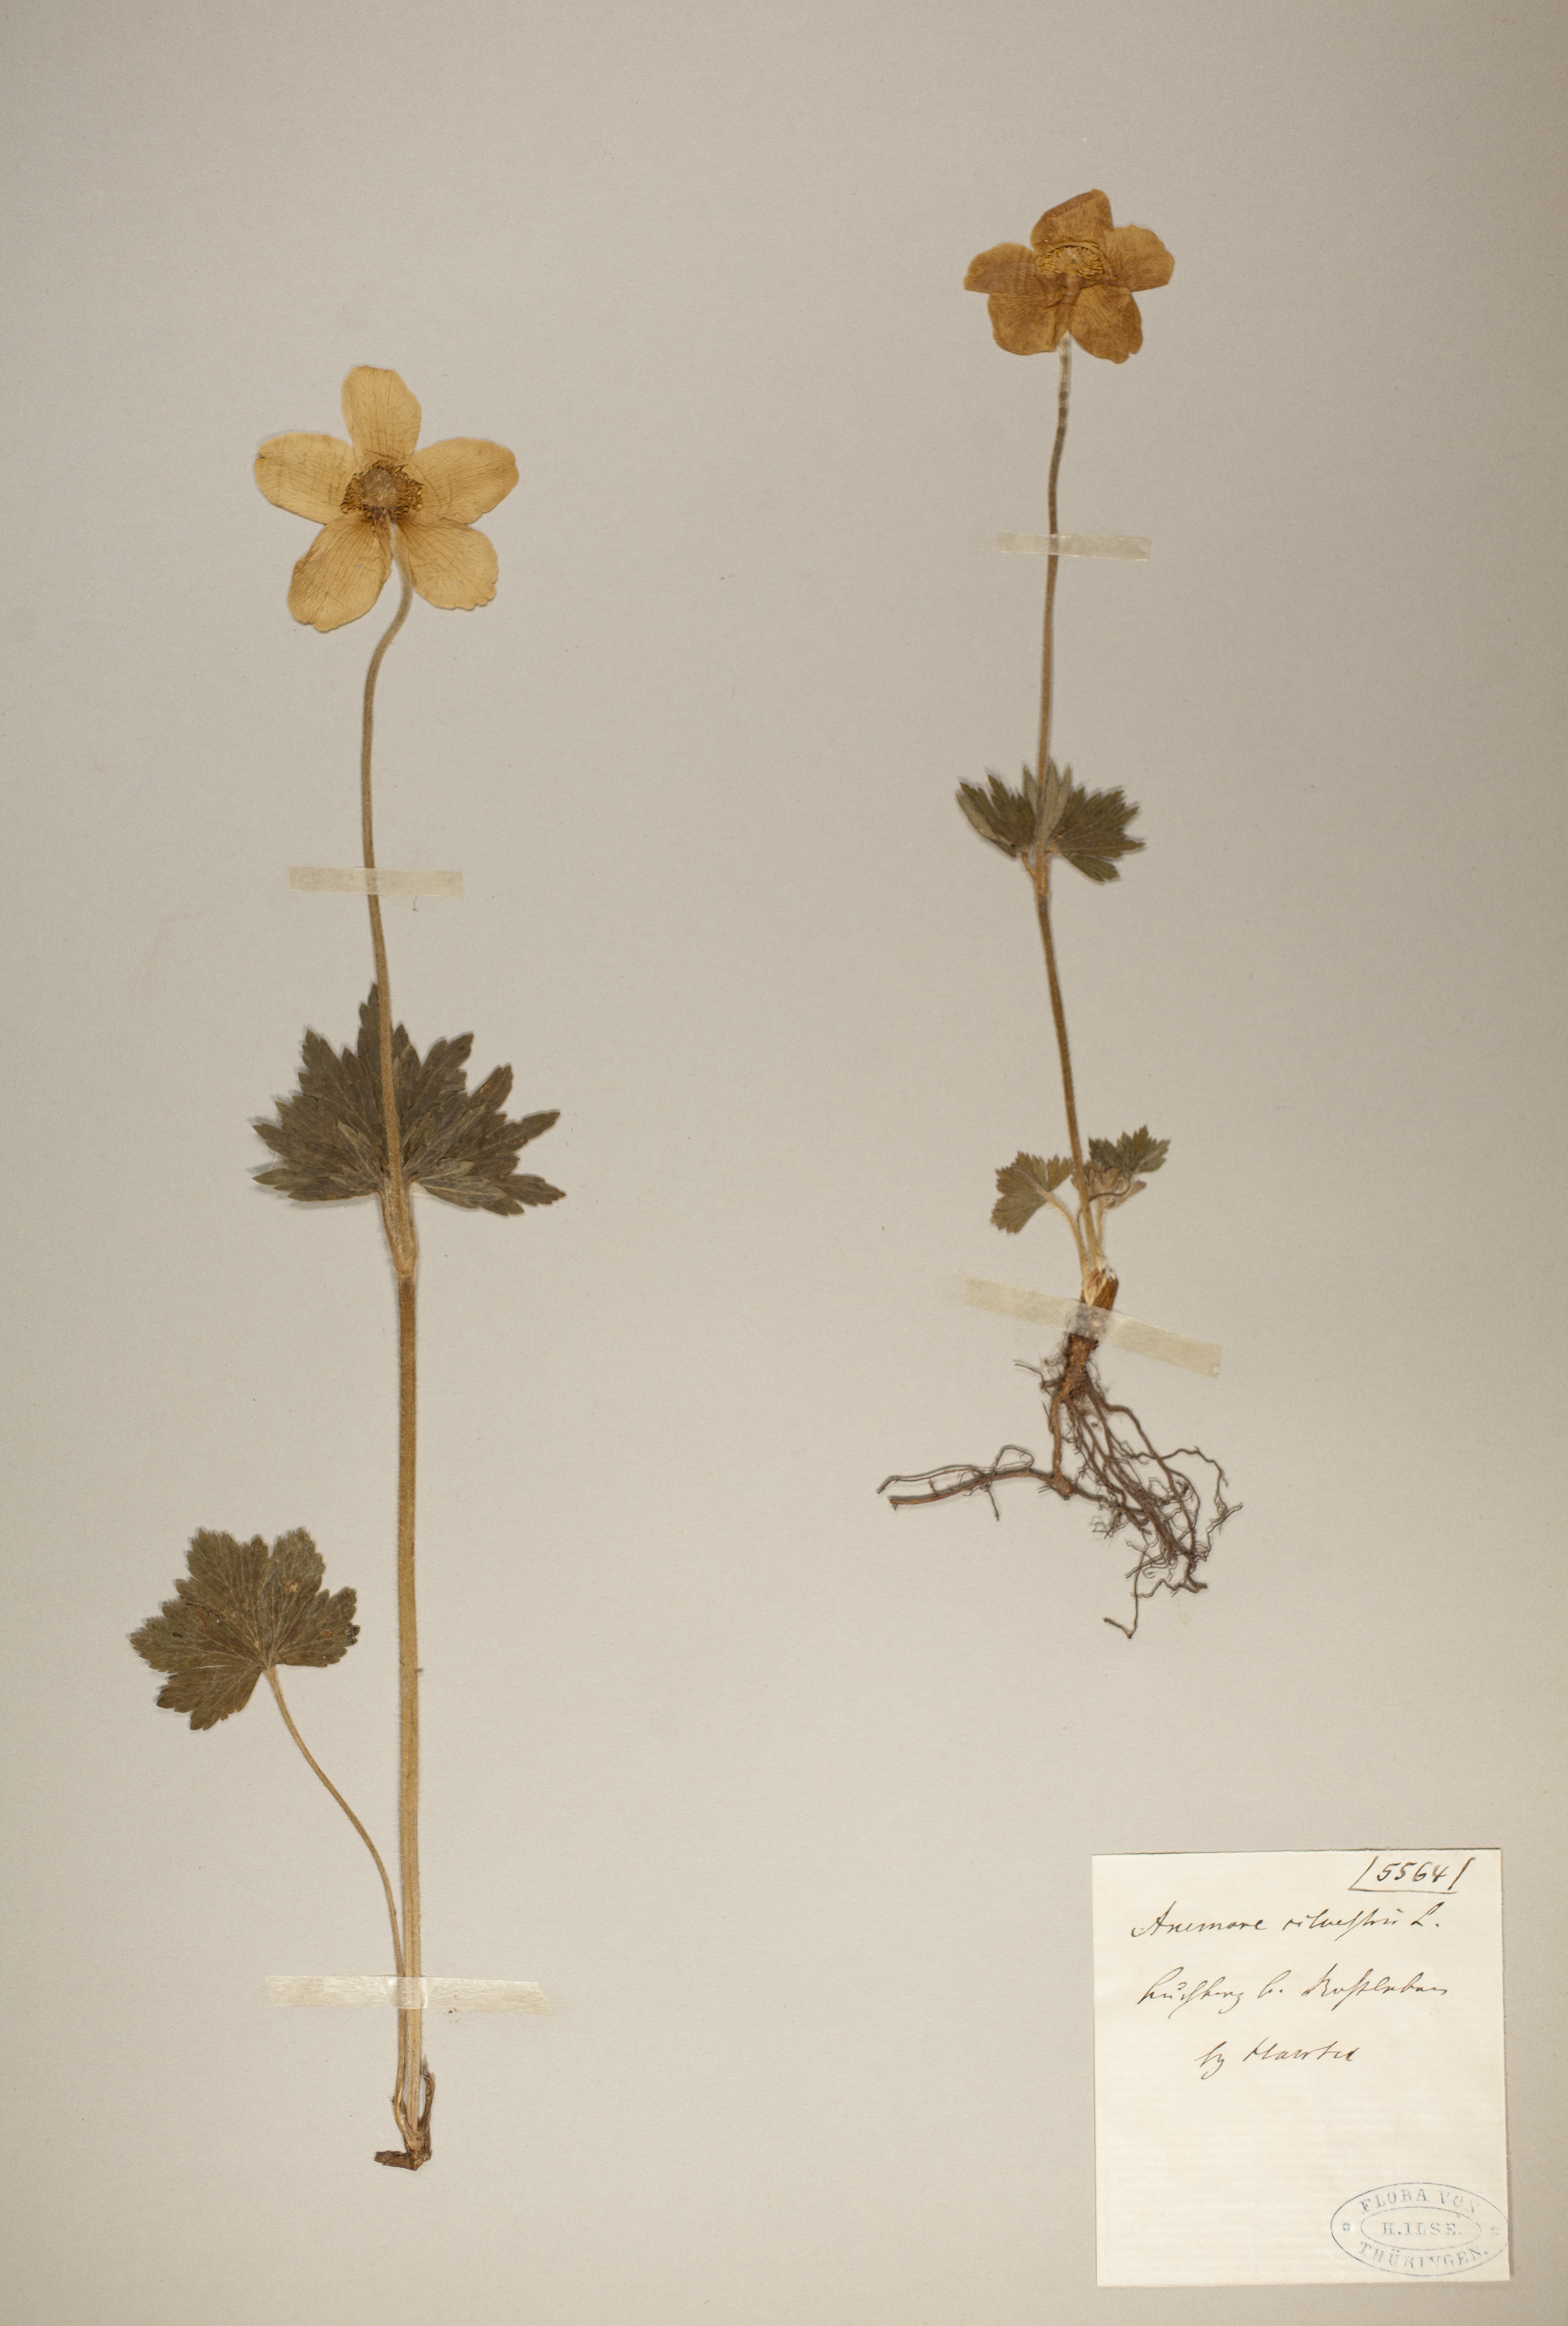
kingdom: Plantae
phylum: Tracheophyta
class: Magnoliopsida
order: Ranunculales
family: Ranunculaceae
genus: Anemone
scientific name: Anemone sylvestris
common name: Snowdrop anemone
